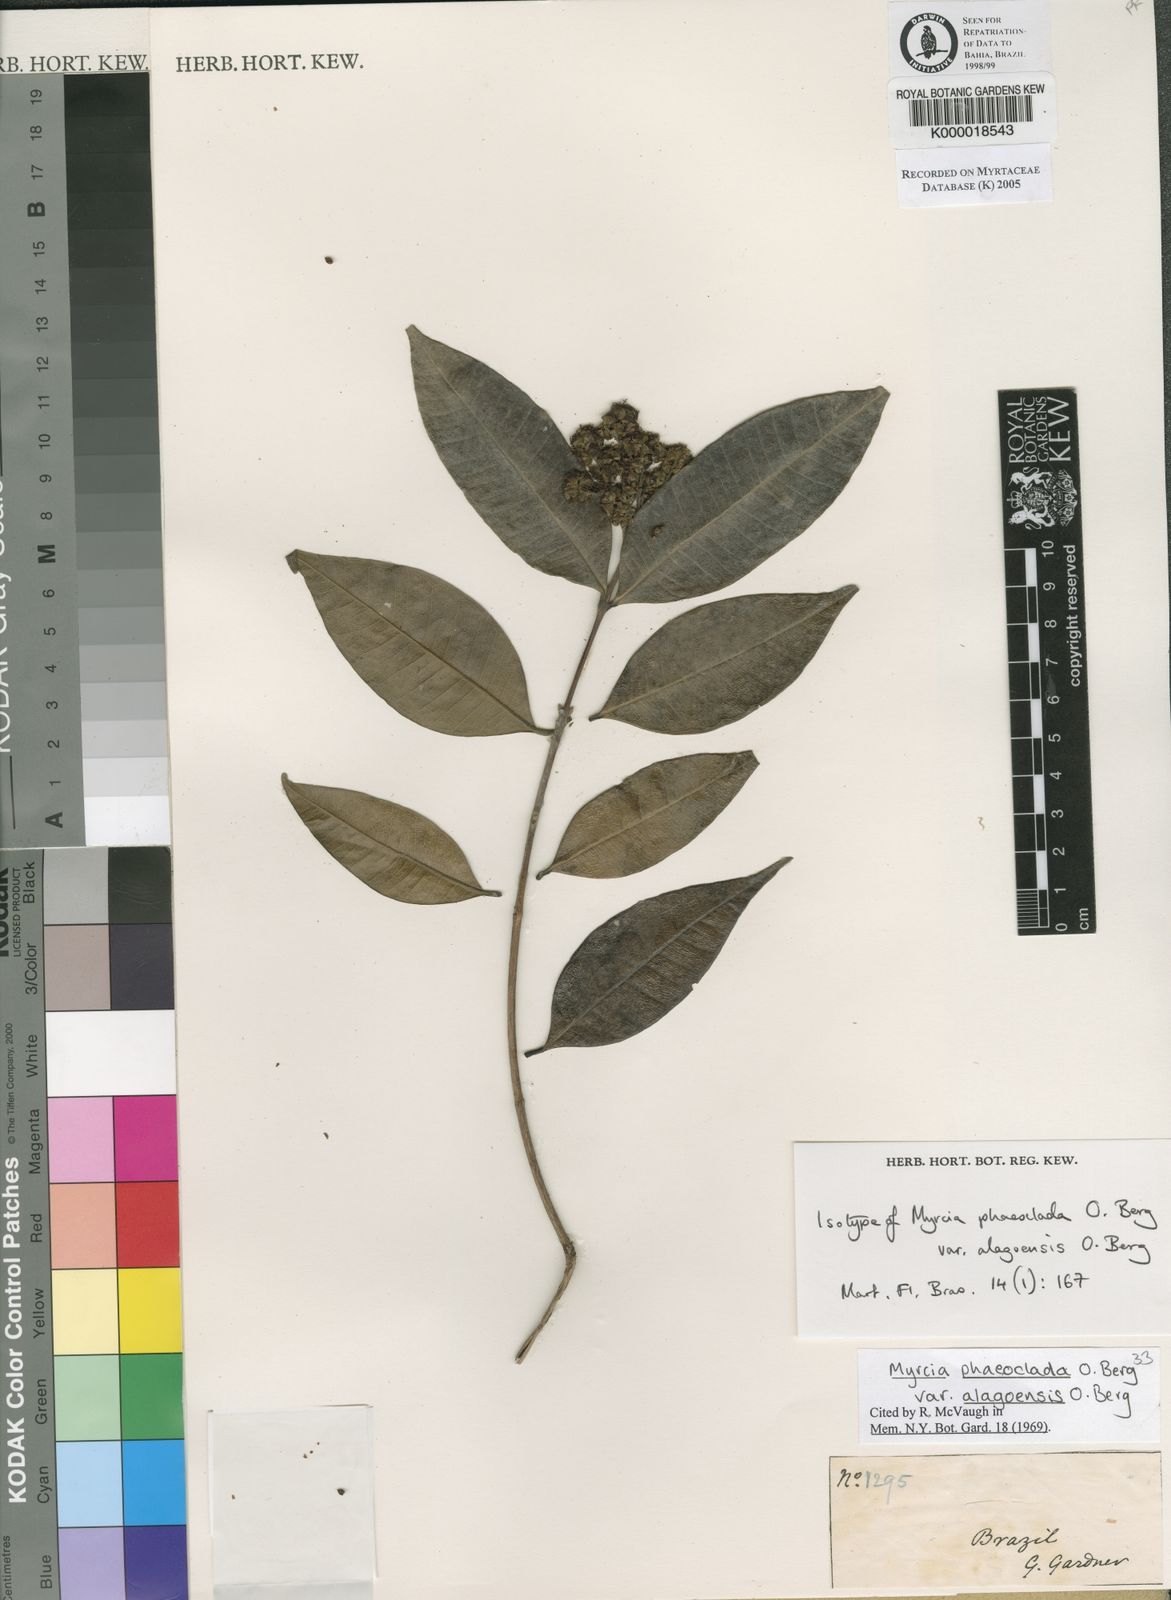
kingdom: Plantae
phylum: Tracheophyta
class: Magnoliopsida
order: Myrtales
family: Myrtaceae
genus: Myrcia
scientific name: Myrcia splendens
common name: Surinam cherry
